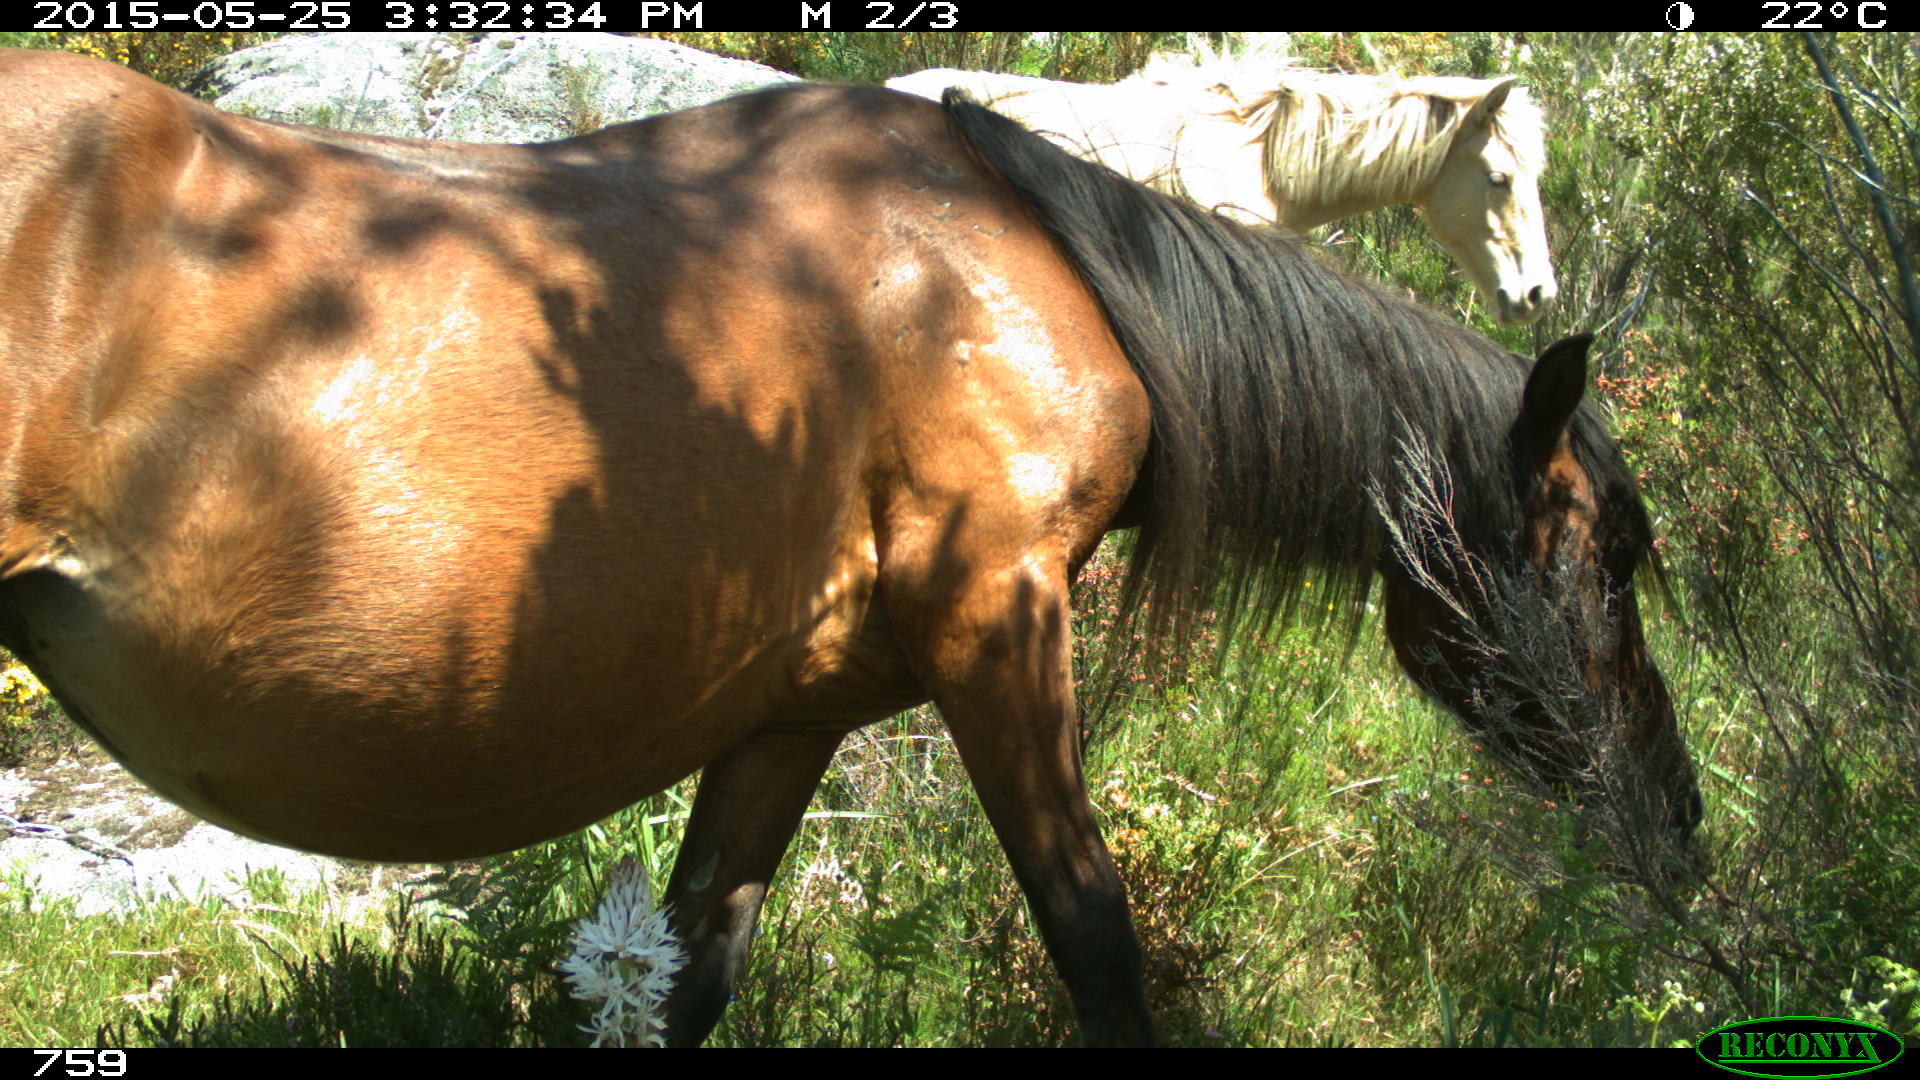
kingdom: Animalia
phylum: Chordata
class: Mammalia
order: Perissodactyla
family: Equidae
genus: Equus
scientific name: Equus caballus
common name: Horse
